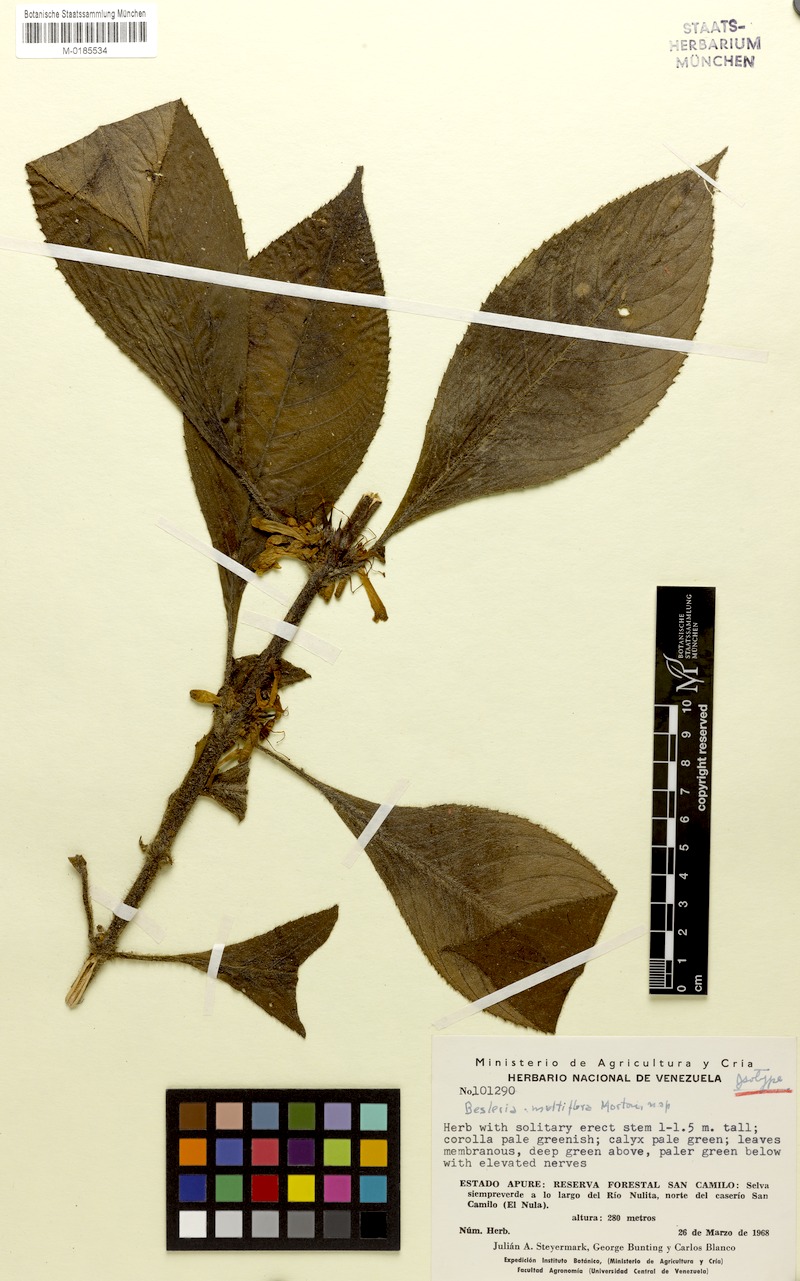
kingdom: Plantae
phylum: Tracheophyta
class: Magnoliopsida
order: Lamiales
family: Gesneriaceae
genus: Besleria
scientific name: Besleria gibbosa
